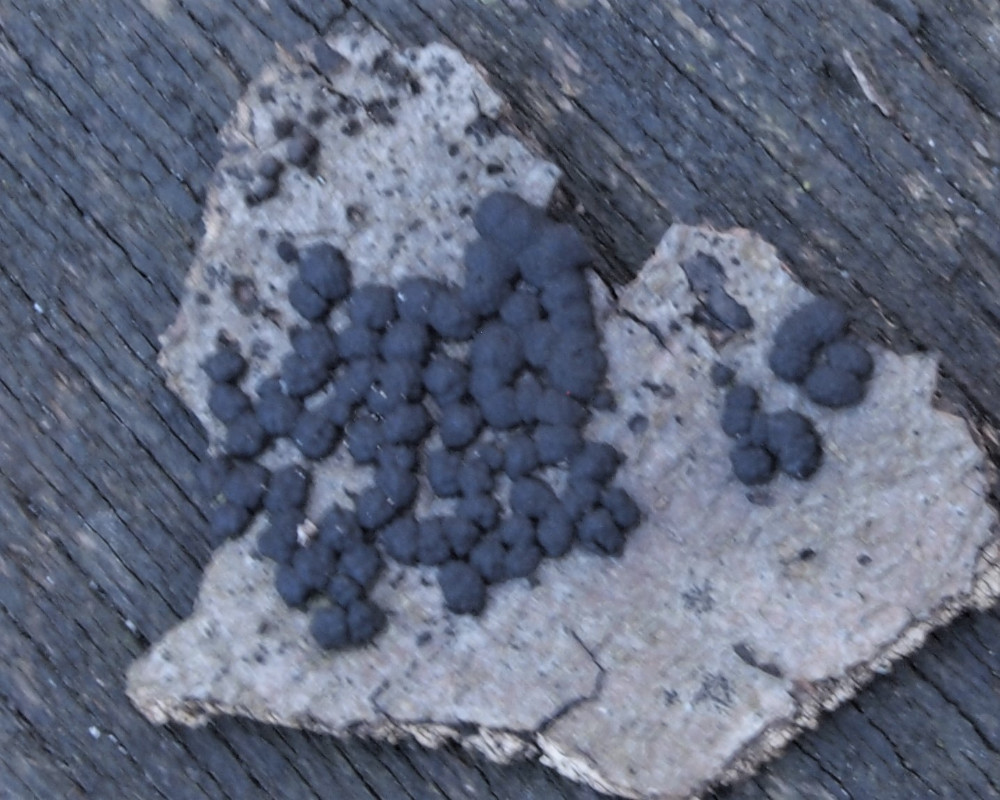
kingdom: Fungi
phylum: Ascomycota
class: Sordariomycetes
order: Xylariales
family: Hypoxylaceae
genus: Jackrogersella
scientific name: Jackrogersella cohaerens
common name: sammenflydende kulbær
